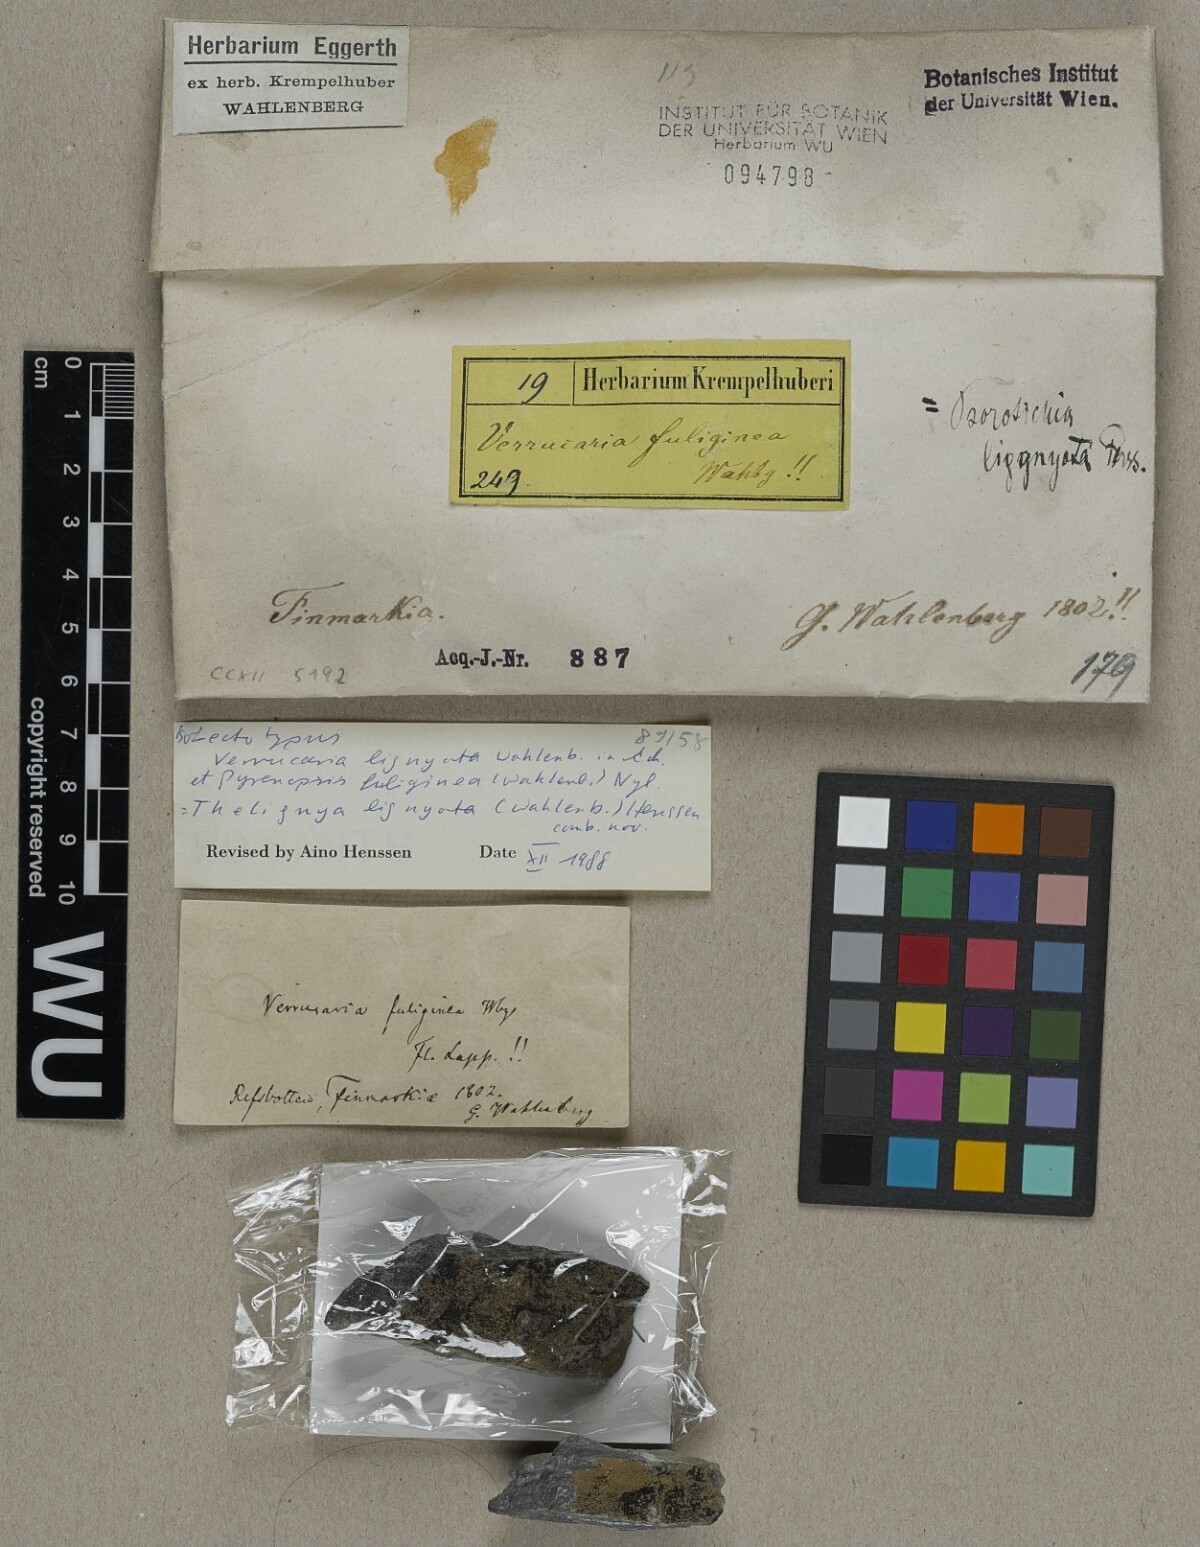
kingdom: Fungi
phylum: Ascomycota
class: Lichinomycetes
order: Lichinales
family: Lichinaceae
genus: Thelignya
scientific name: Thelignya lignyota
